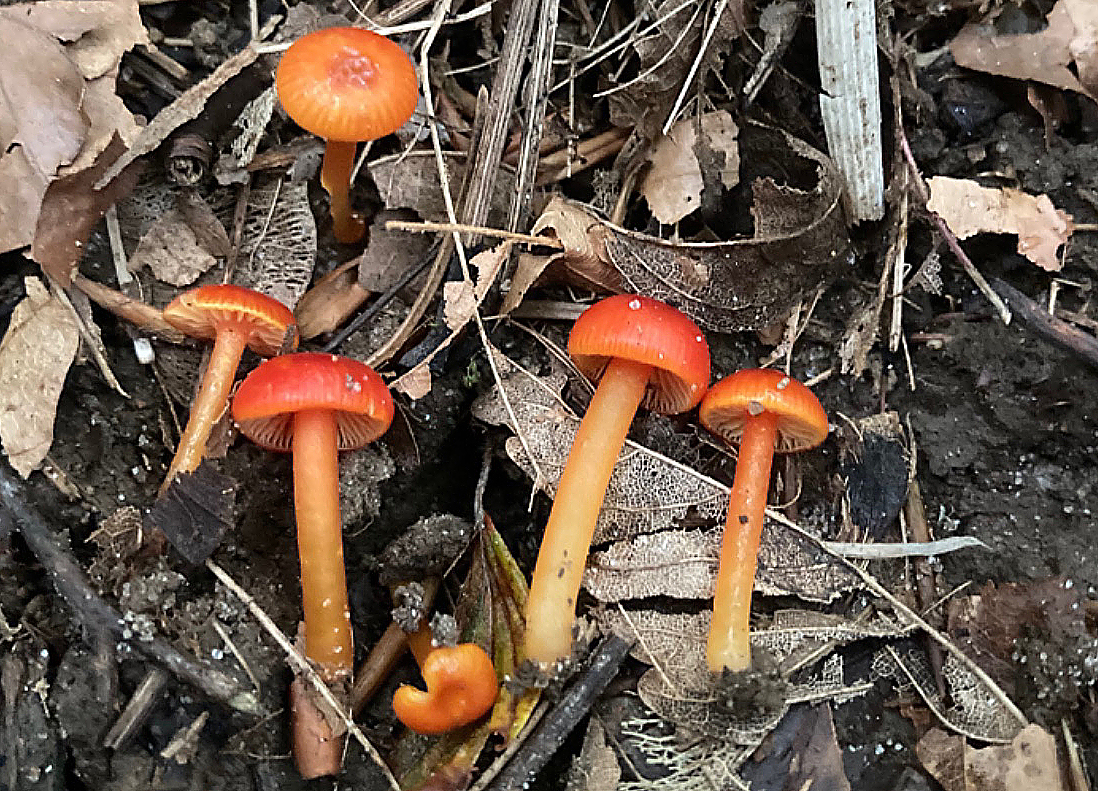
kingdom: Fungi
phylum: Basidiomycota
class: Agaricomycetes
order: Agaricales
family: Hygrophoraceae
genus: Hygrocybe
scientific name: Hygrocybe glutinipes
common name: rubin-vokshat
